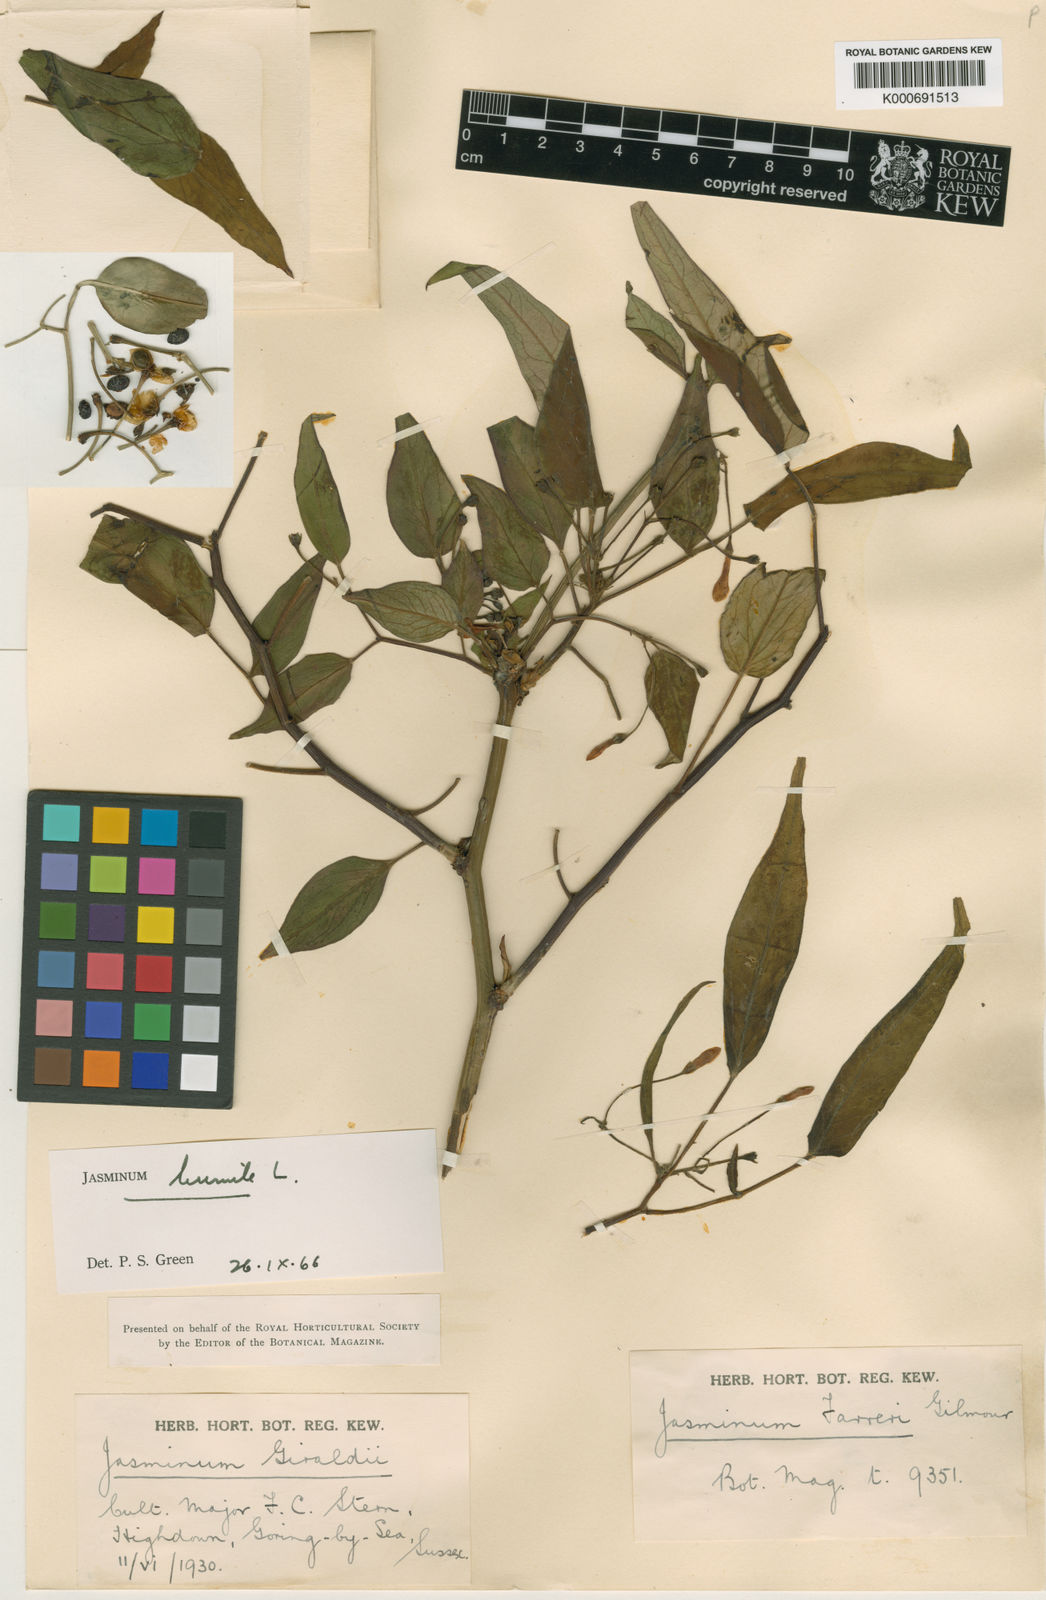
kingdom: Plantae
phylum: Tracheophyta
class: Magnoliopsida
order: Lamiales
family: Oleaceae
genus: Chrysojasminum
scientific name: Chrysojasminum humile
